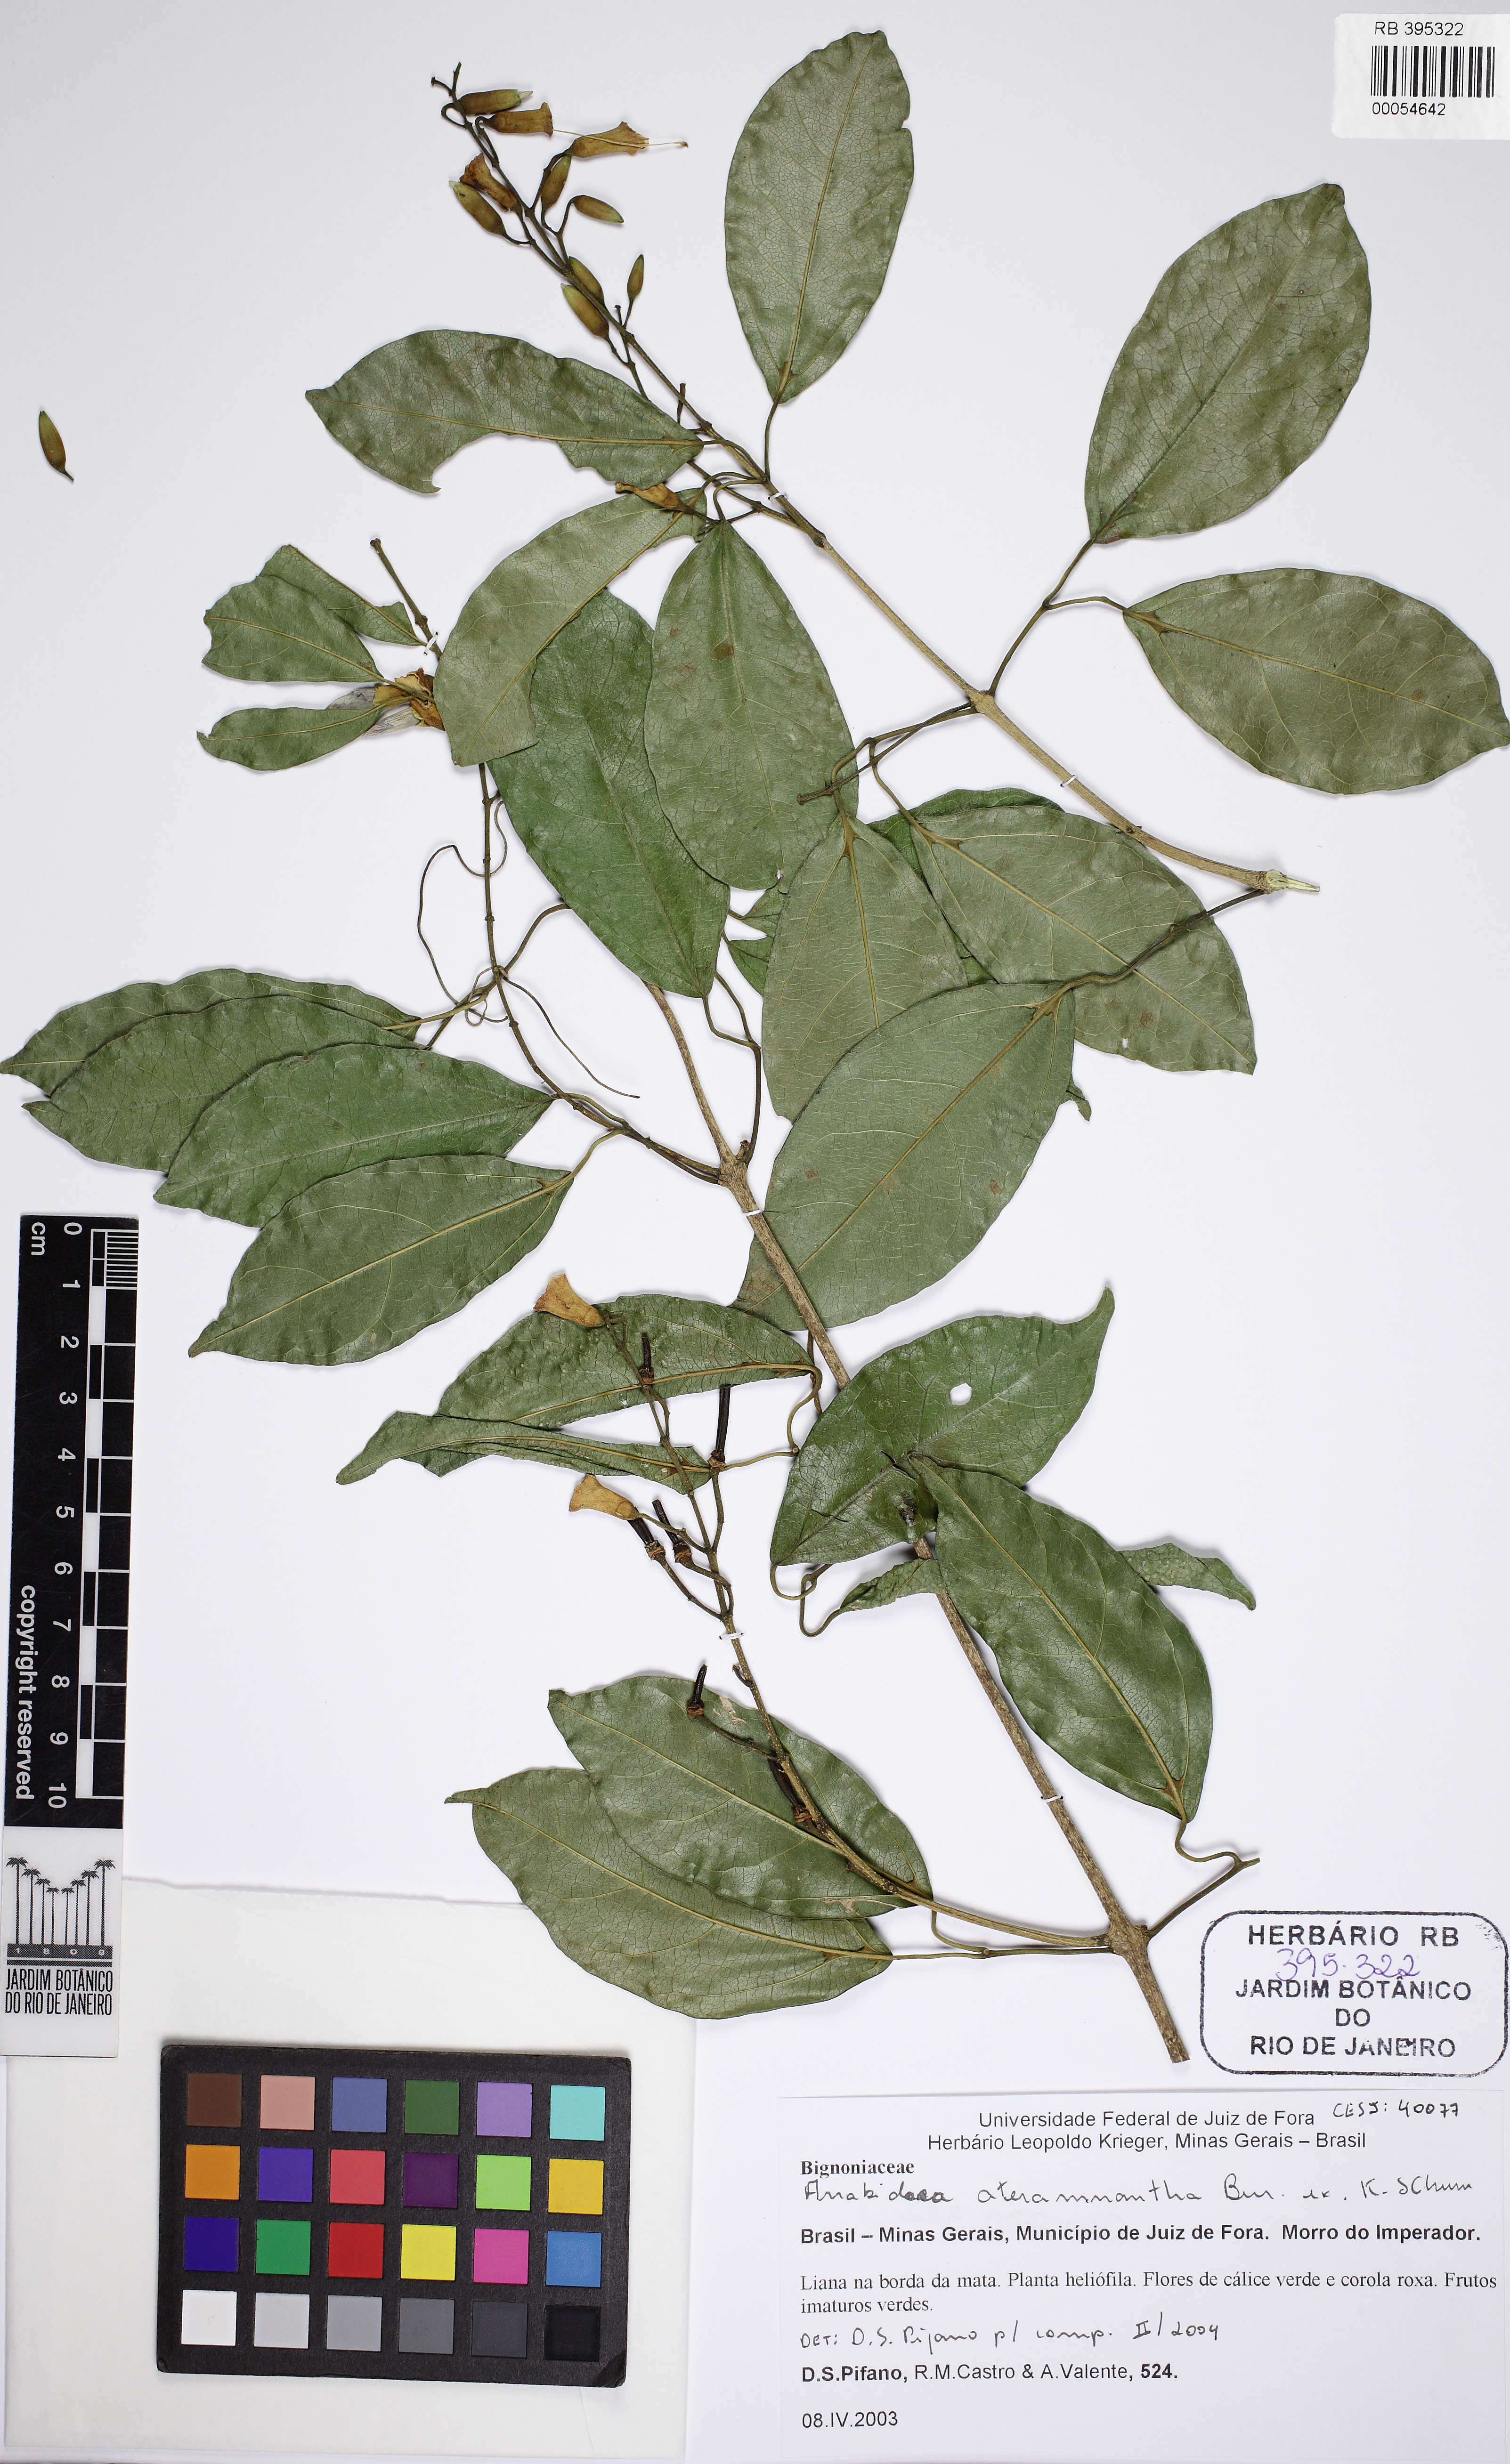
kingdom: Plantae
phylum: Tracheophyta
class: Magnoliopsida
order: Lamiales
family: Bignoniaceae
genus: Fridericia
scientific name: Fridericia triplinervia
